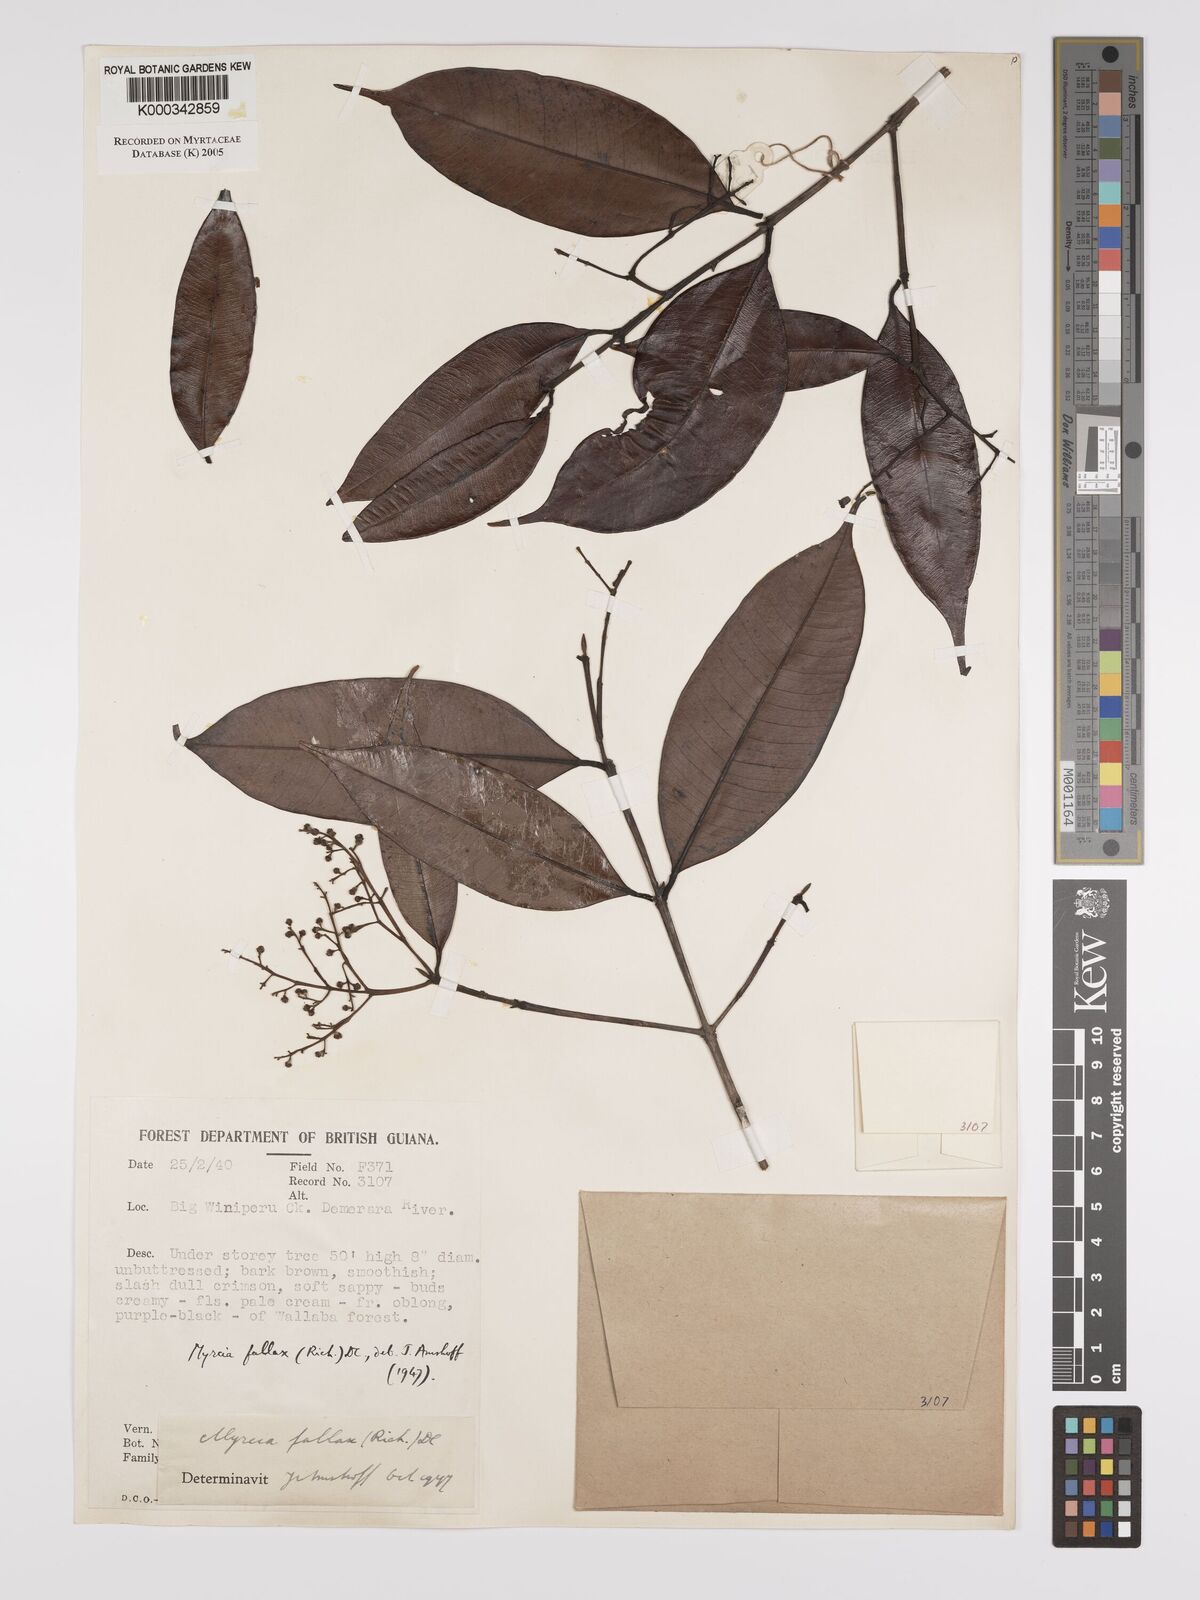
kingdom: Plantae
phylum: Tracheophyta
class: Magnoliopsida
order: Myrtales
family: Myrtaceae
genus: Myrcia
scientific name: Myrcia splendens
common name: Surinam cherry
